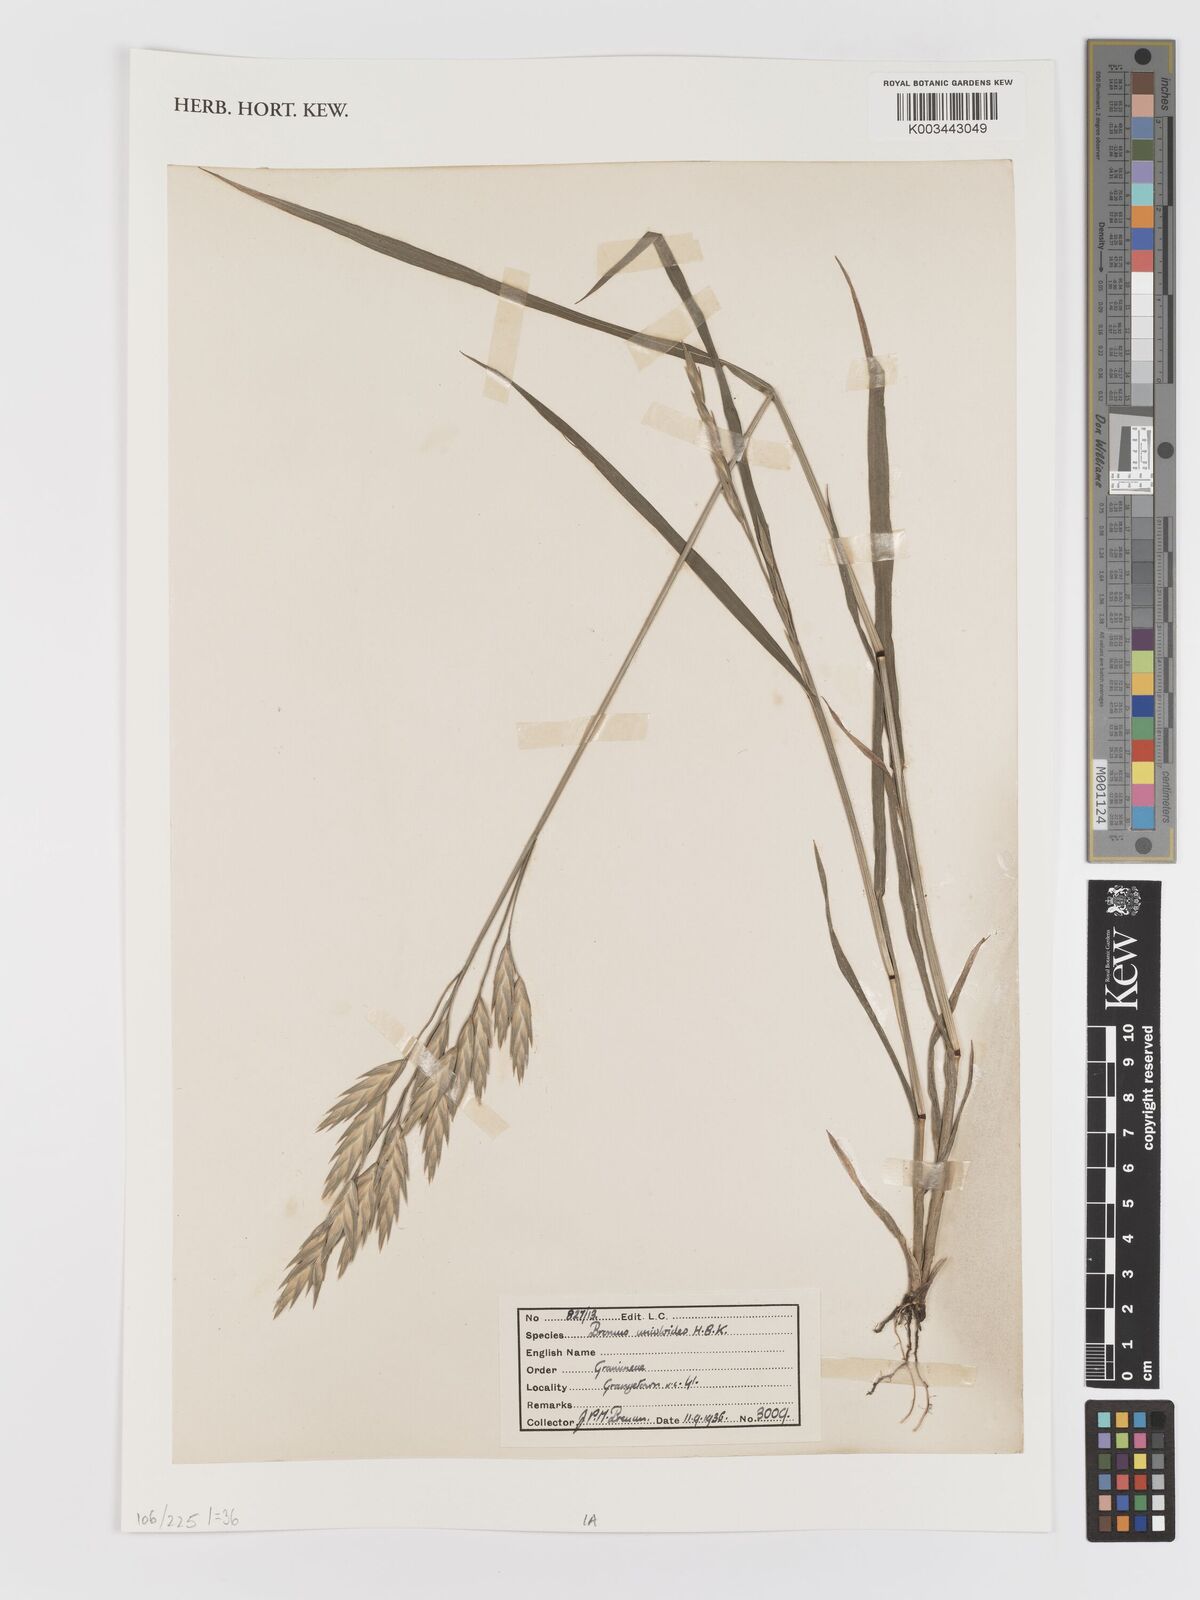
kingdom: Plantae
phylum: Tracheophyta
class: Liliopsida
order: Poales
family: Poaceae
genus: Bromus
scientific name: Bromus catharticus
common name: Rescuegrass
